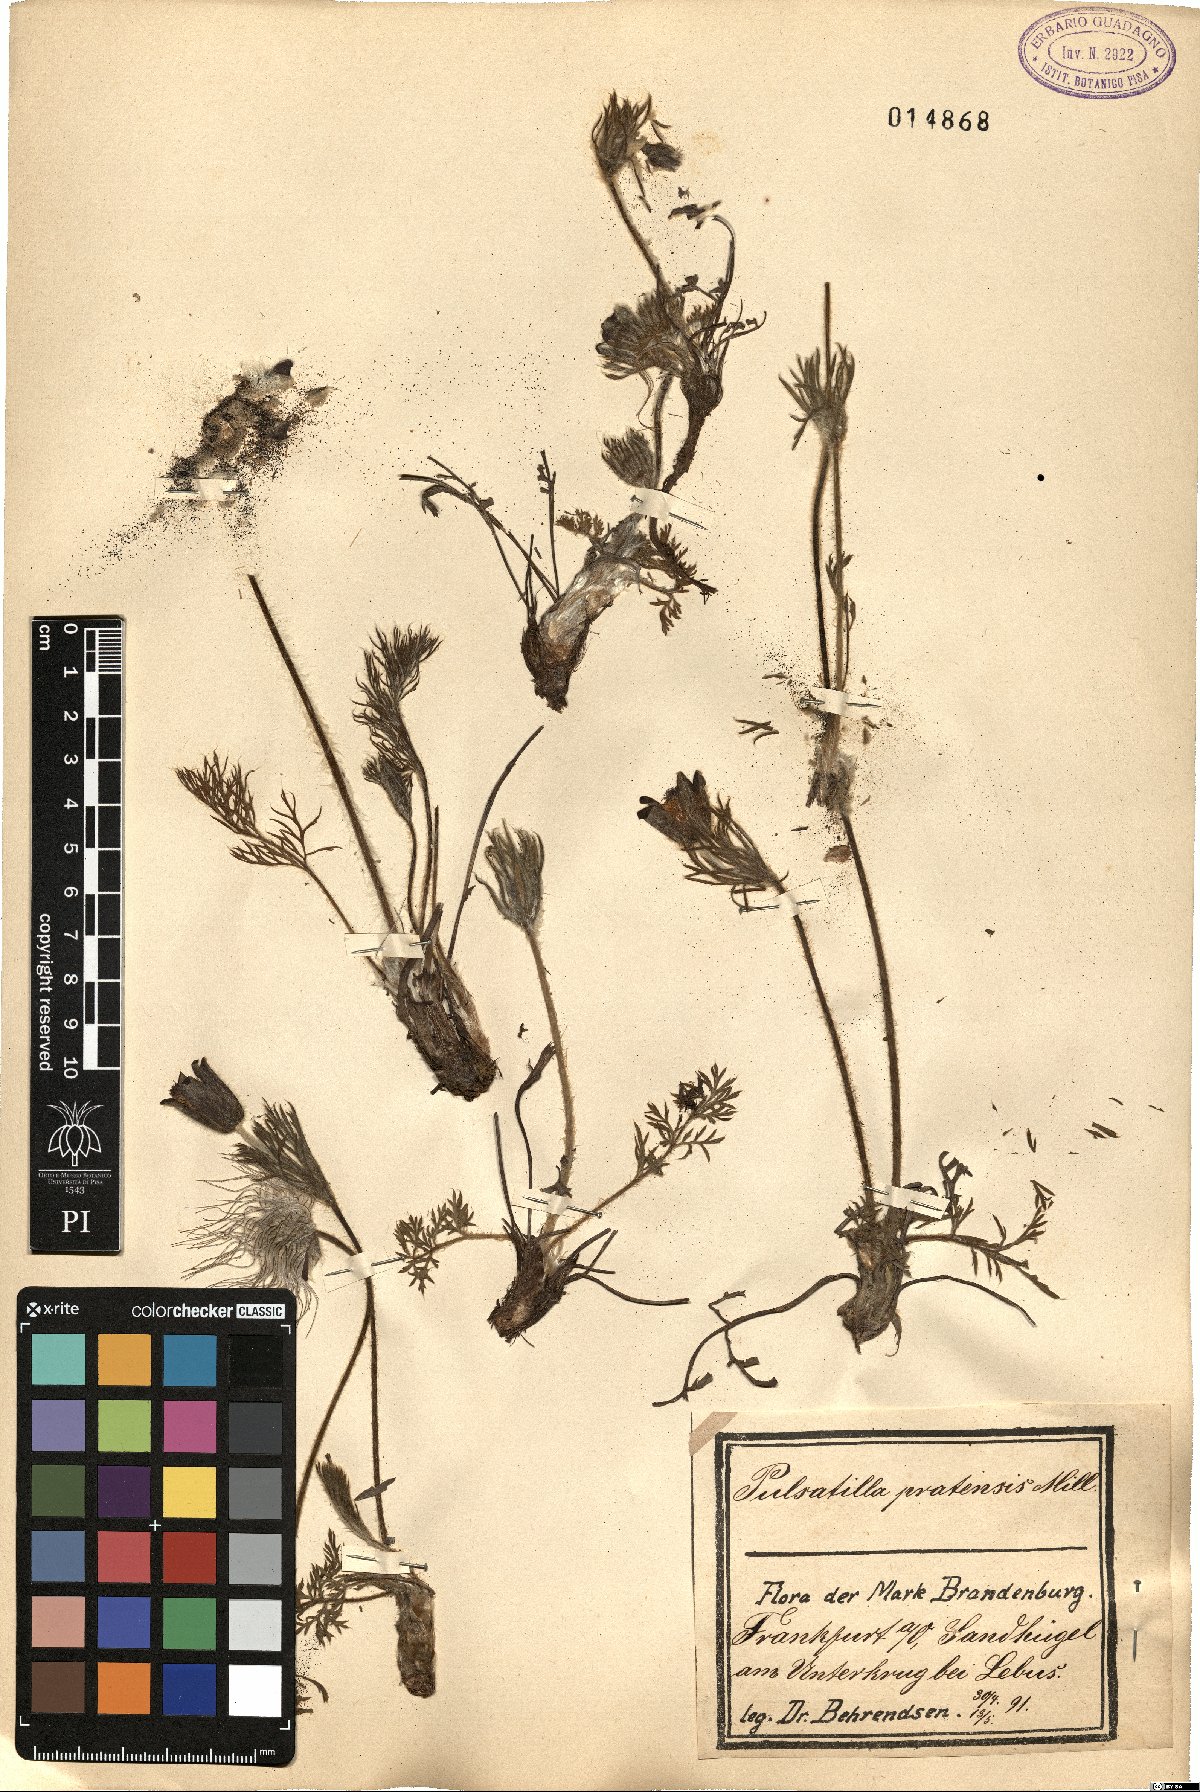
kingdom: Plantae
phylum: Tracheophyta
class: Magnoliopsida
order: Ranunculales
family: Ranunculaceae
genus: Pulsatilla
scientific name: Pulsatilla pratensis
